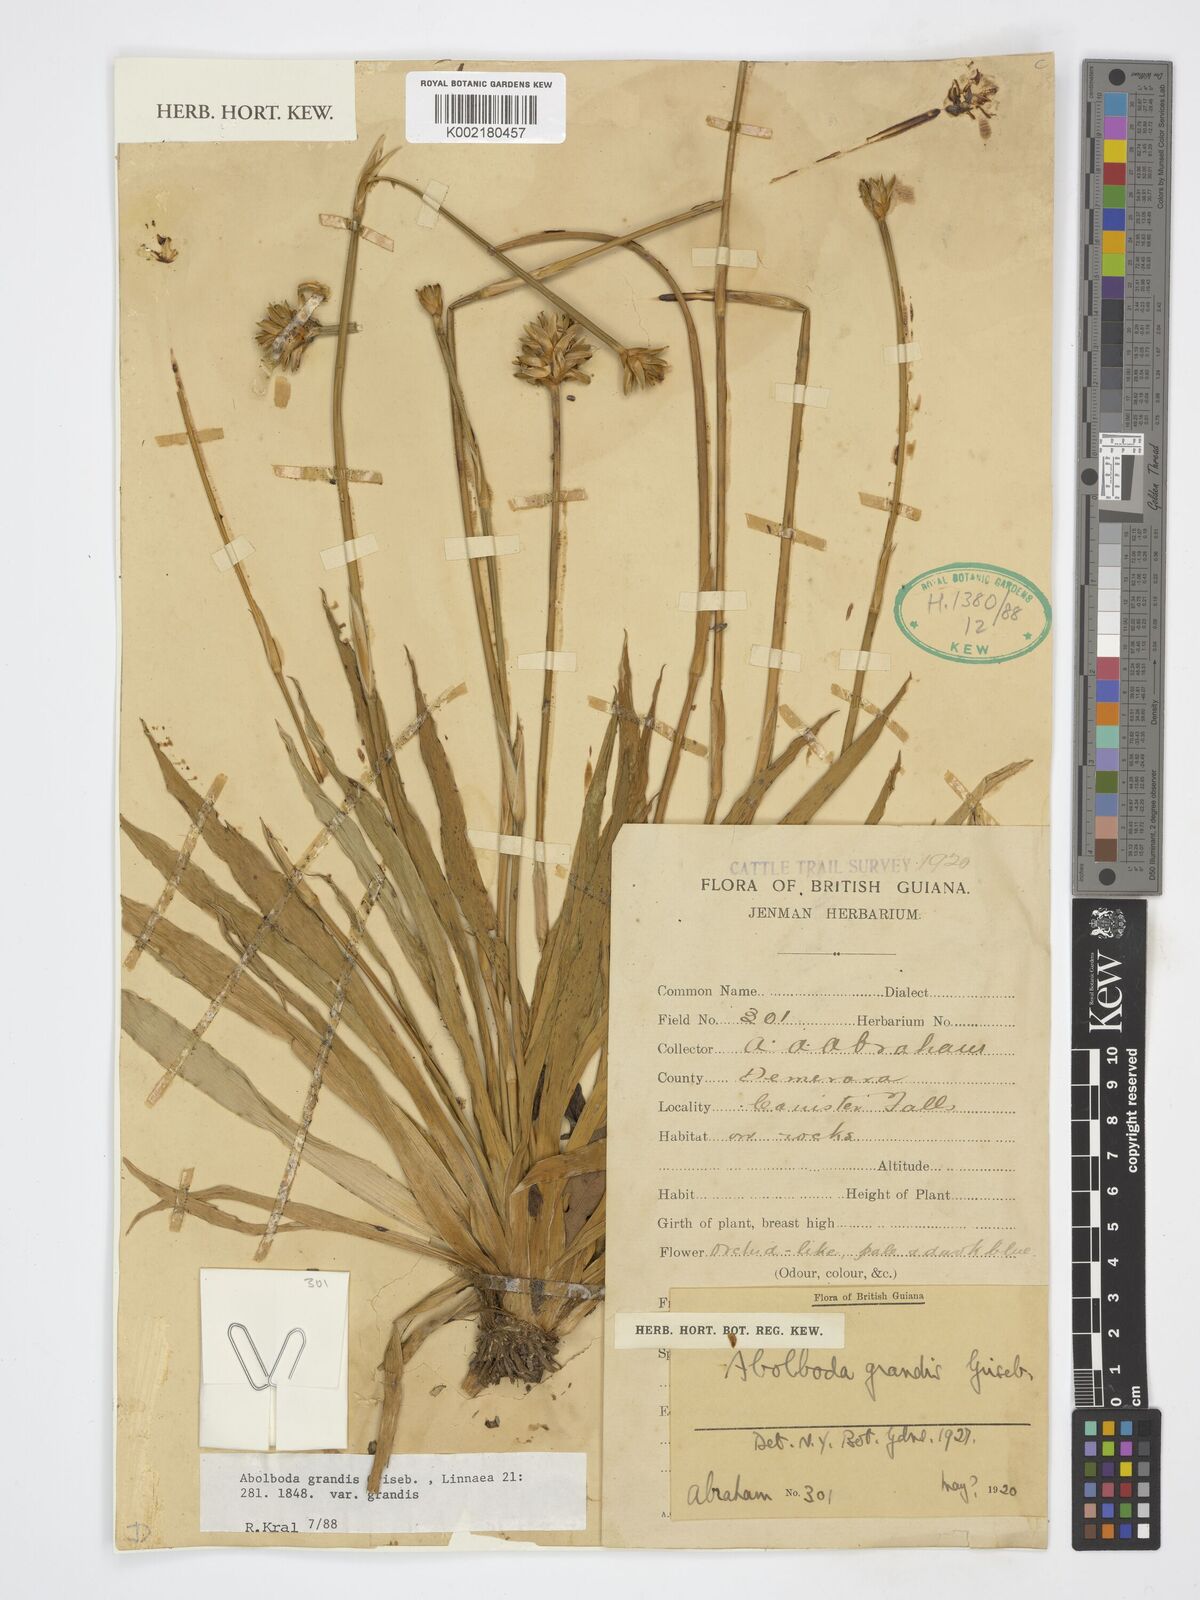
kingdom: Plantae
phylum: Tracheophyta
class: Liliopsida
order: Poales
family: Xyridaceae
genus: Abolboda
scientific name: Abolboda grandis
